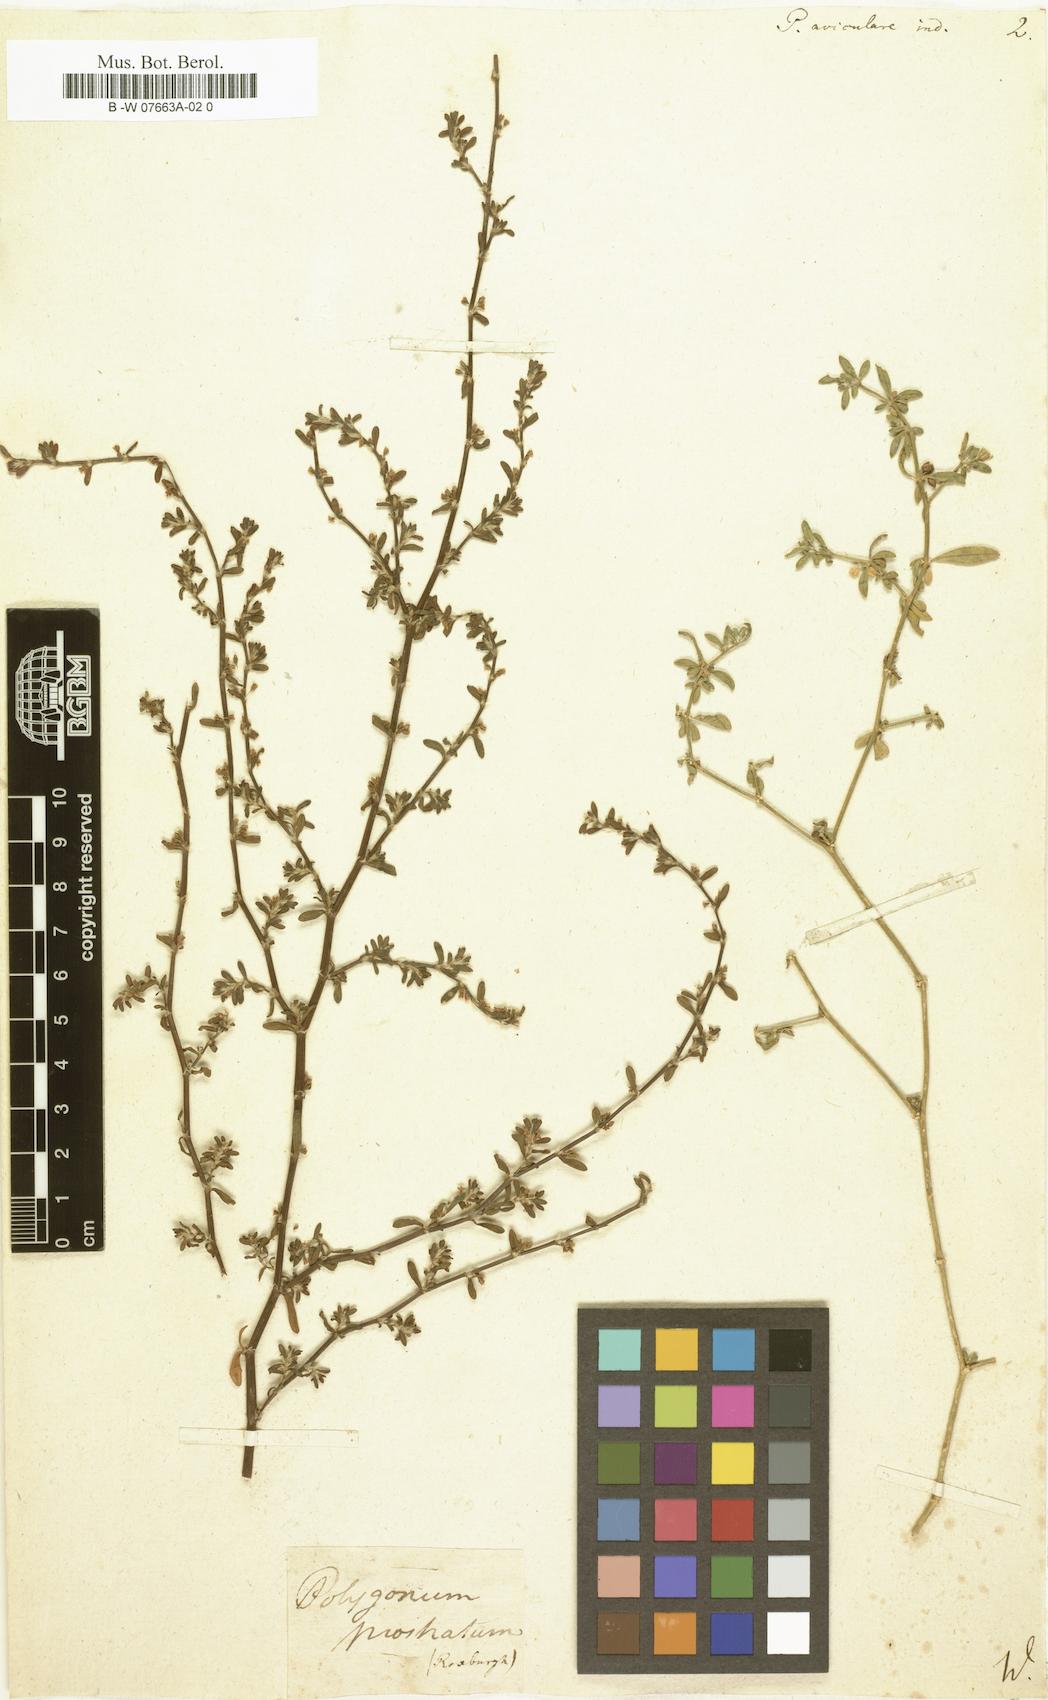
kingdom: Plantae
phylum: Tracheophyta
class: Magnoliopsida
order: Caryophyllales
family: Polygonaceae
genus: Polygonum
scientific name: Polygonum
